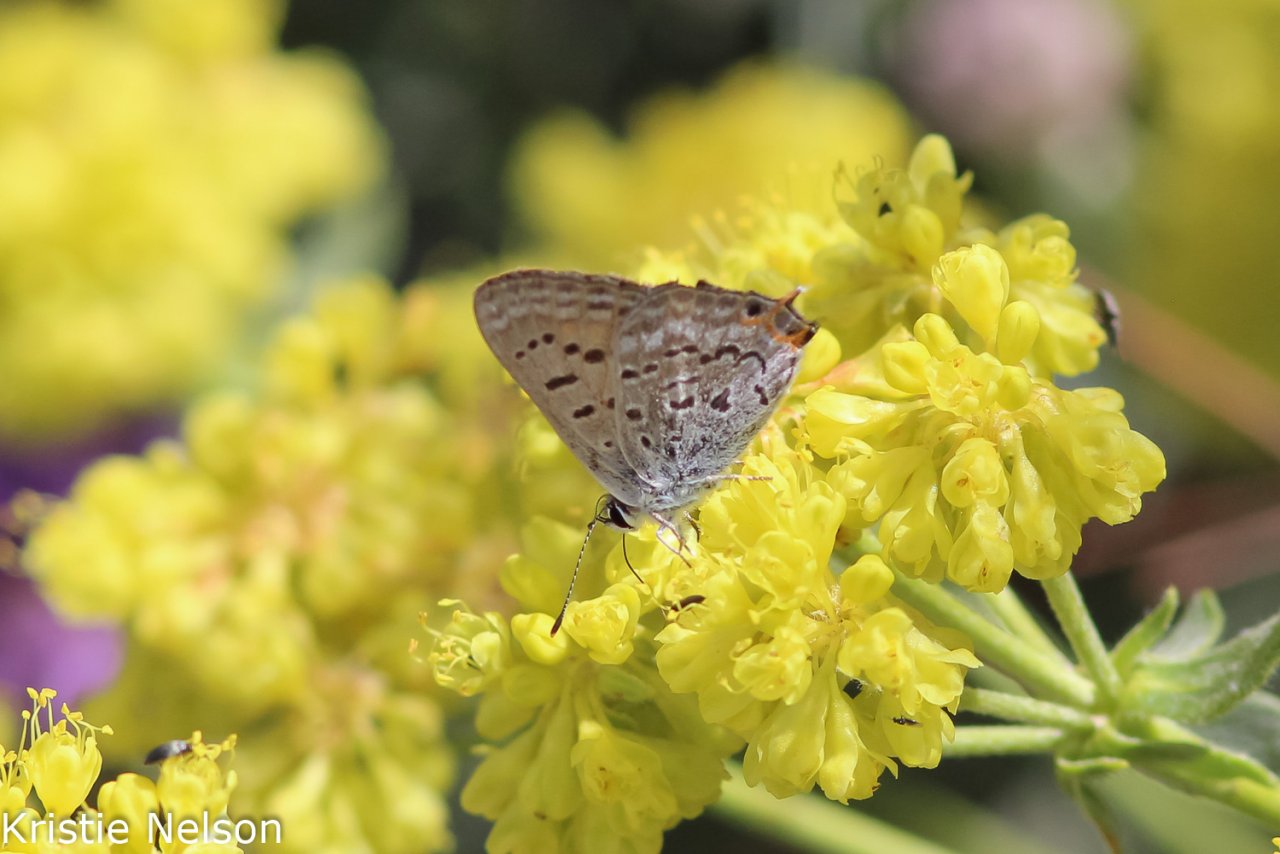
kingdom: Animalia
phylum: Arthropoda
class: Insecta
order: Lepidoptera
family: Sesiidae
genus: Sesia
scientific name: Sesia Lycaena arota
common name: Tailed Copper
